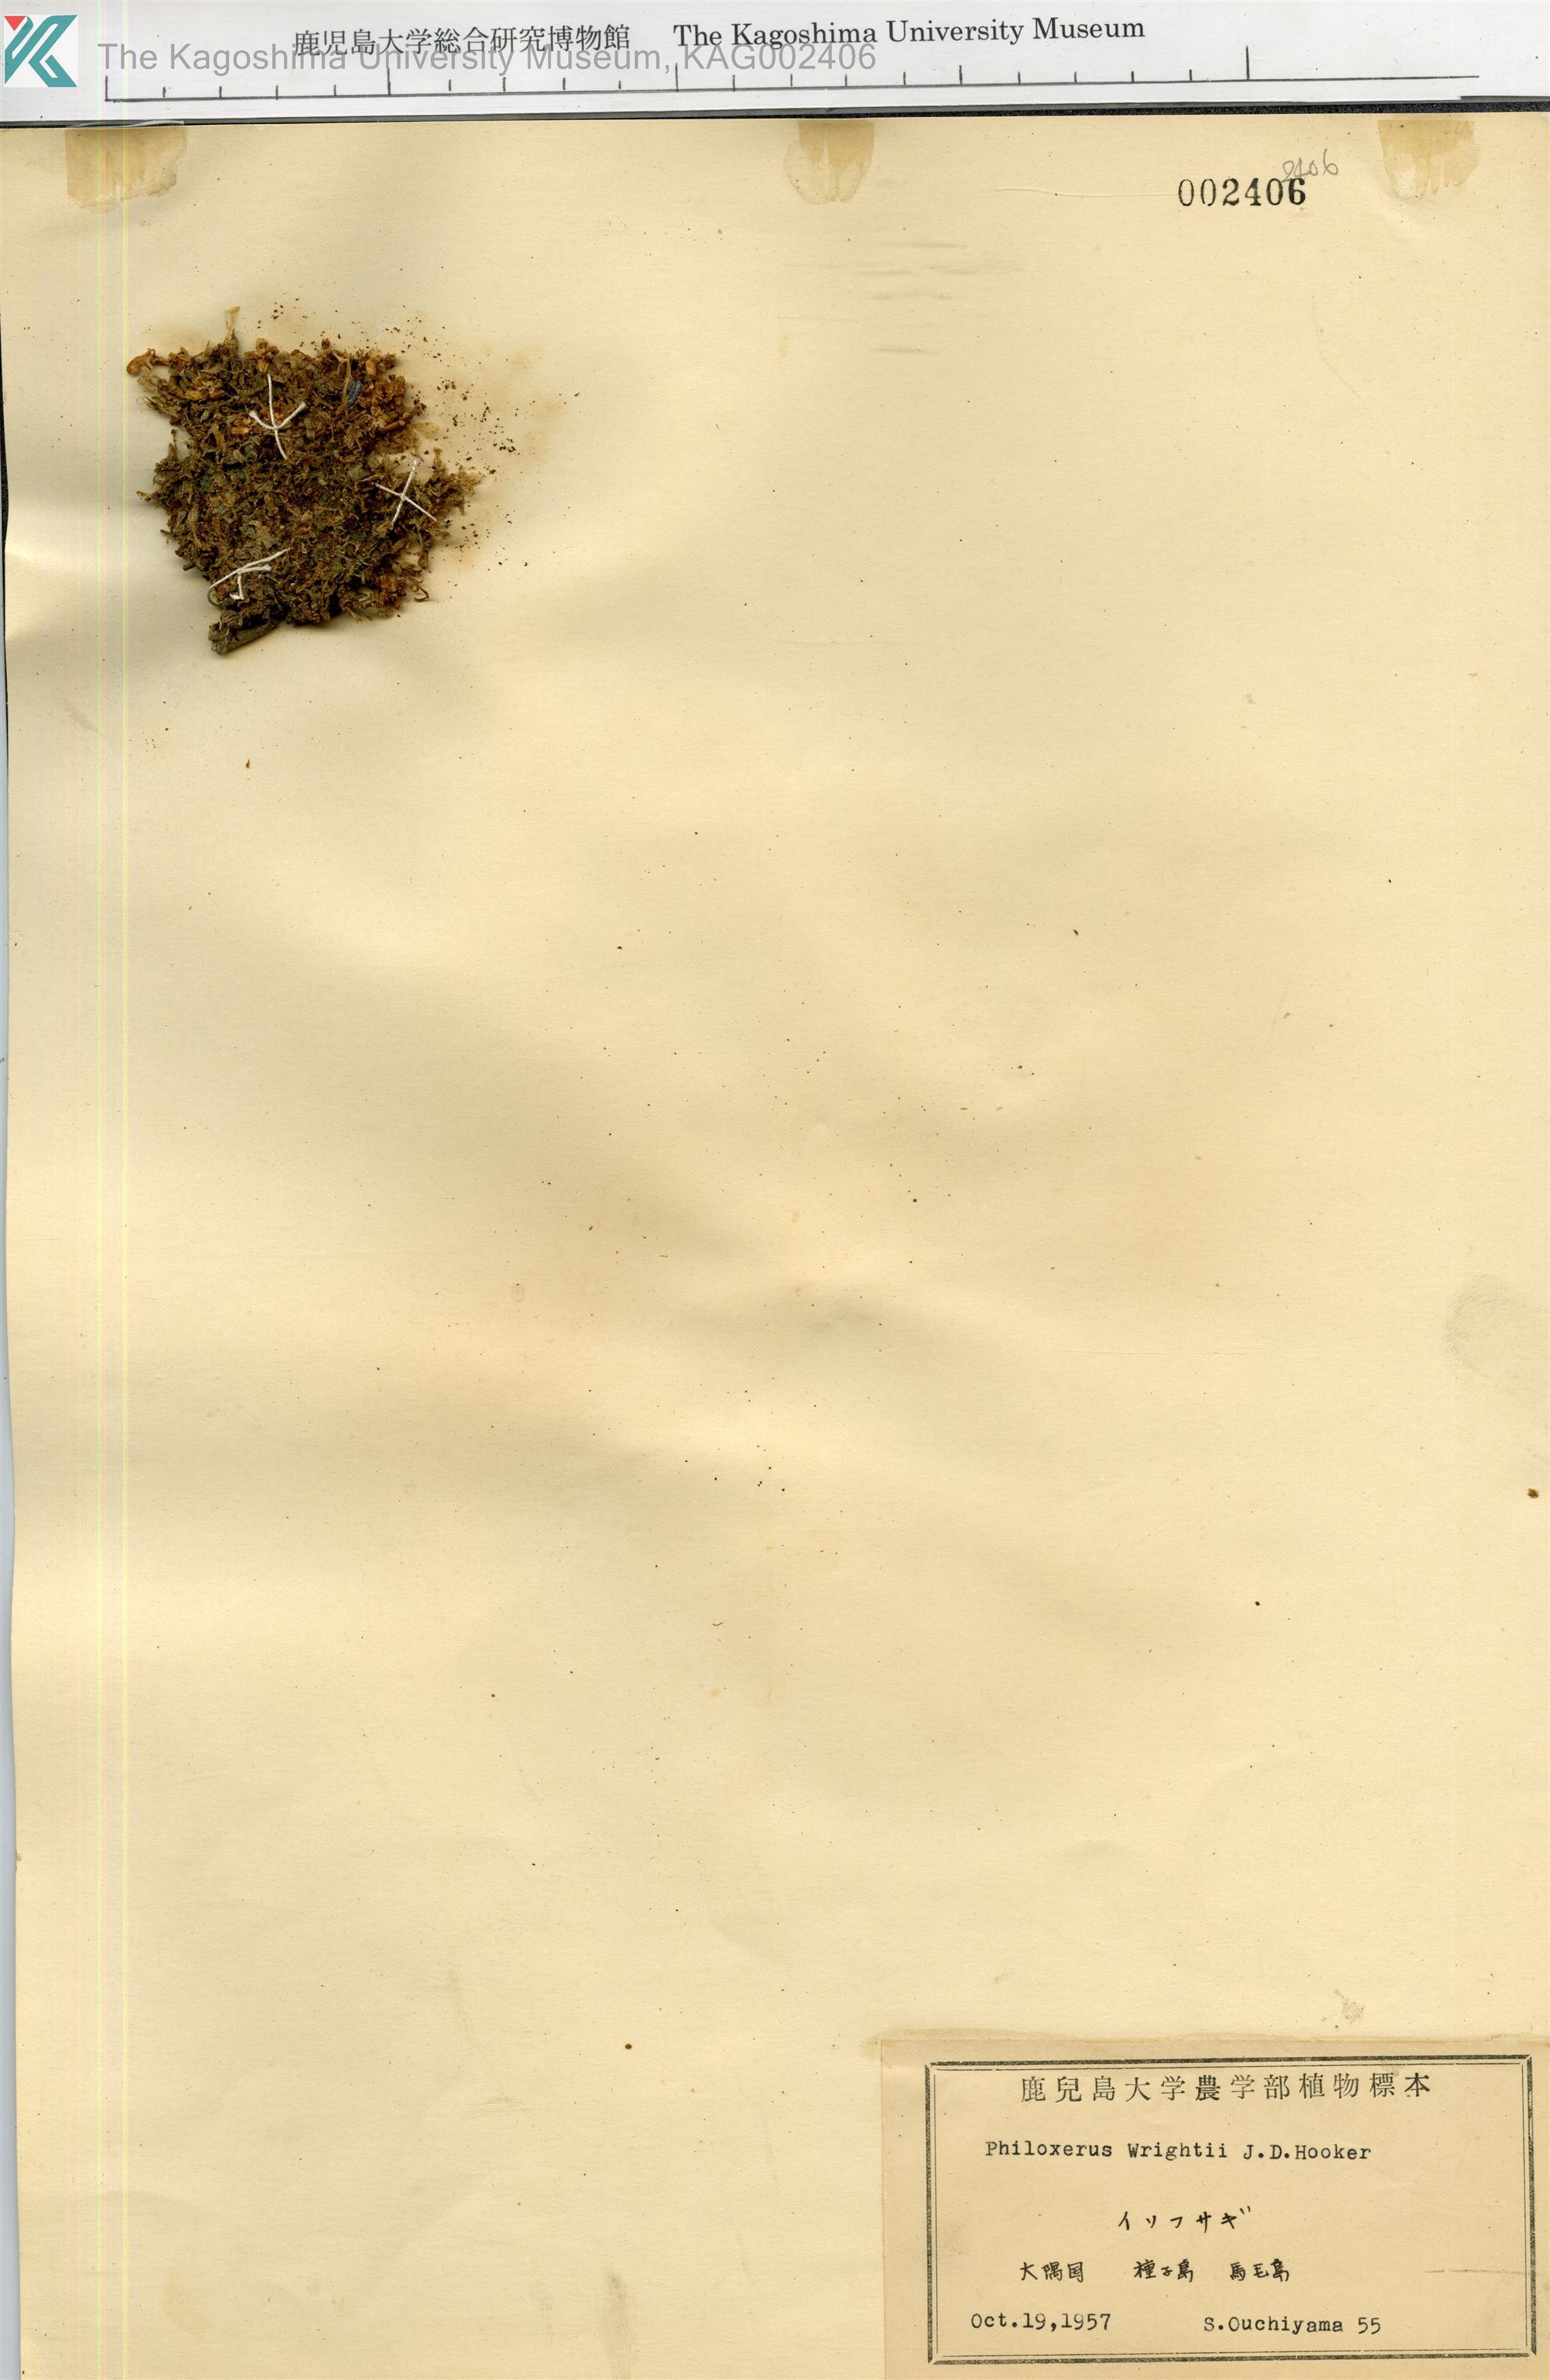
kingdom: Plantae
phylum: Tracheophyta
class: Magnoliopsida
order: Caryophyllales
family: Amaranthaceae
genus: Gomphrena
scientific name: Gomphrena wrightii
